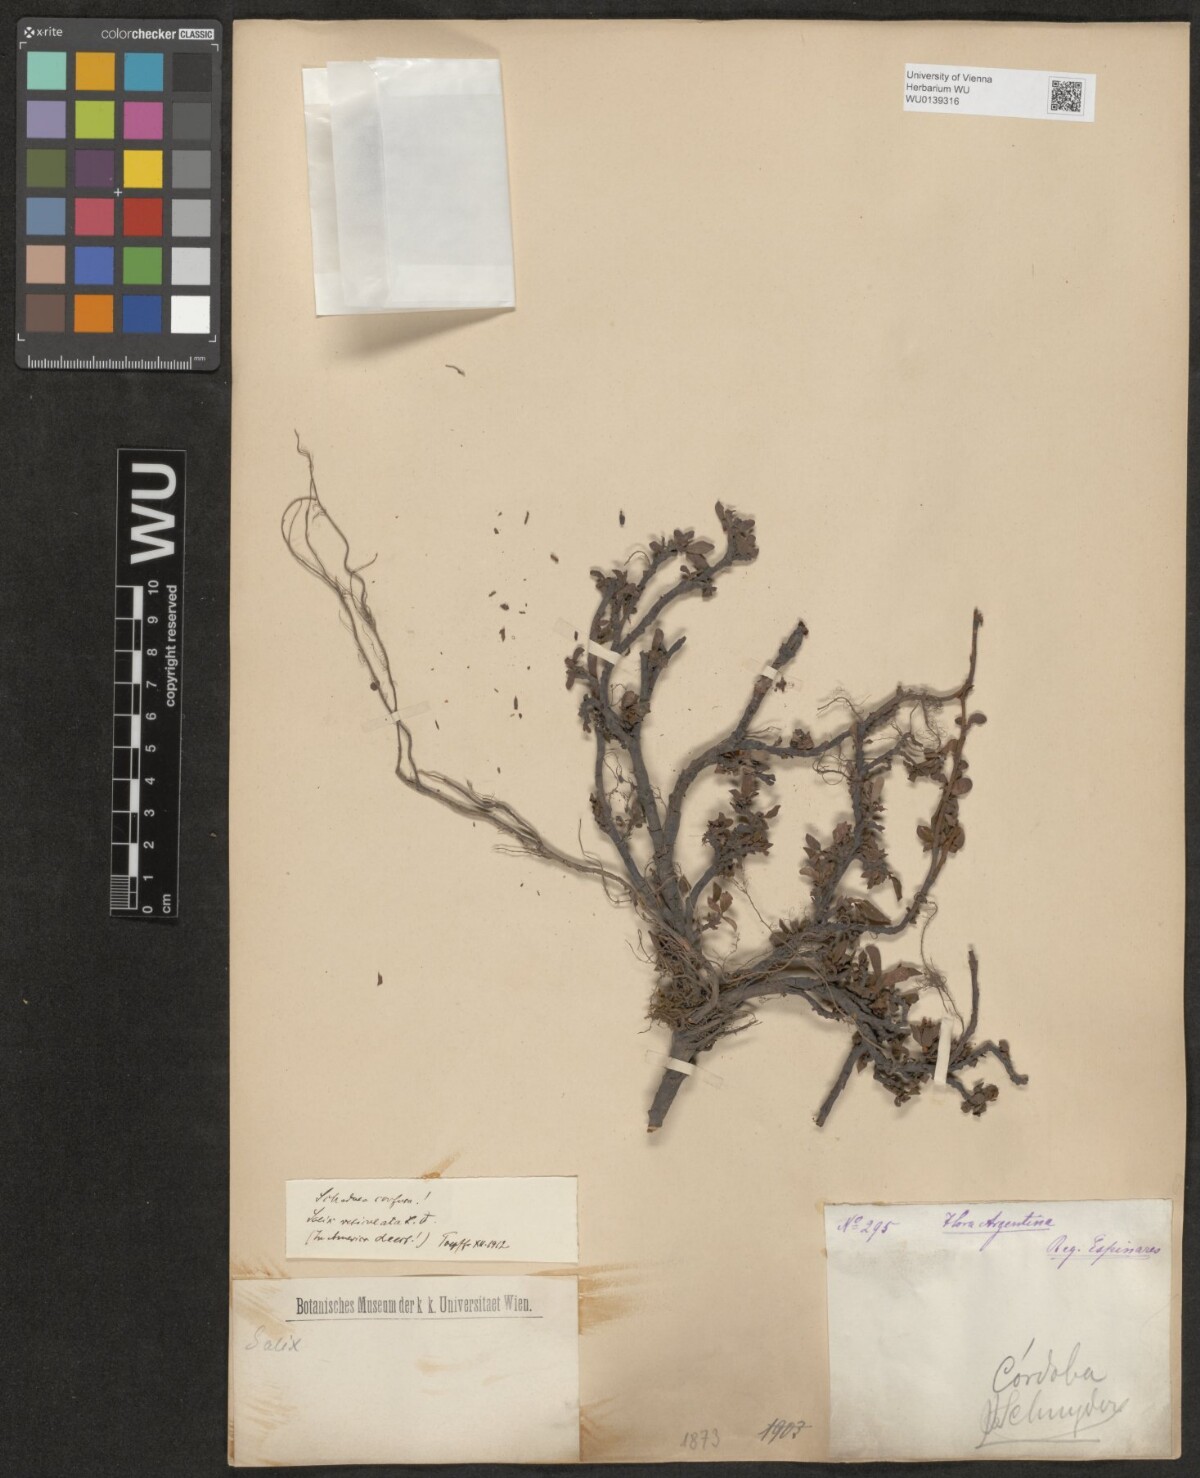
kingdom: Plantae
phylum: Tracheophyta
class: Magnoliopsida
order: Malpighiales
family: Salicaceae
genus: Salix
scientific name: Salix reticulata
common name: Net-leaved willow
